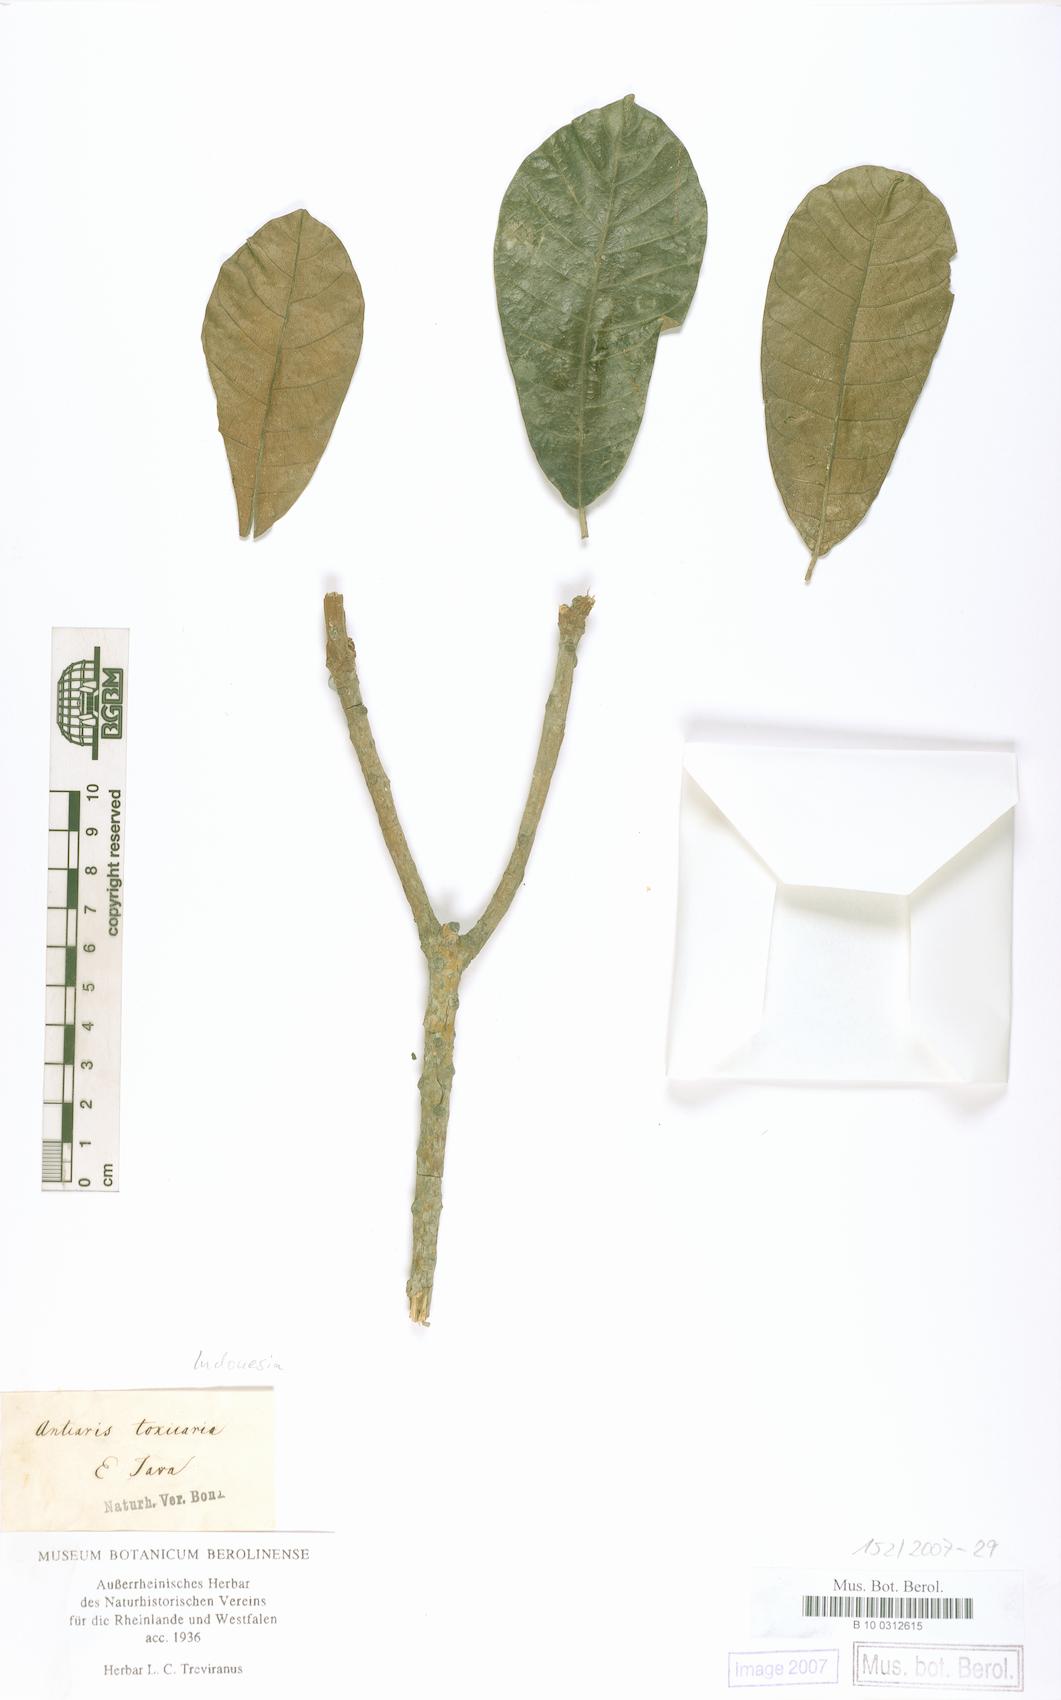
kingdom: Plantae
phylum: Tracheophyta
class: Magnoliopsida
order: Rosales
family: Moraceae
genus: Antiaris
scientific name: Antiaris toxicaria
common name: Sackingtree
